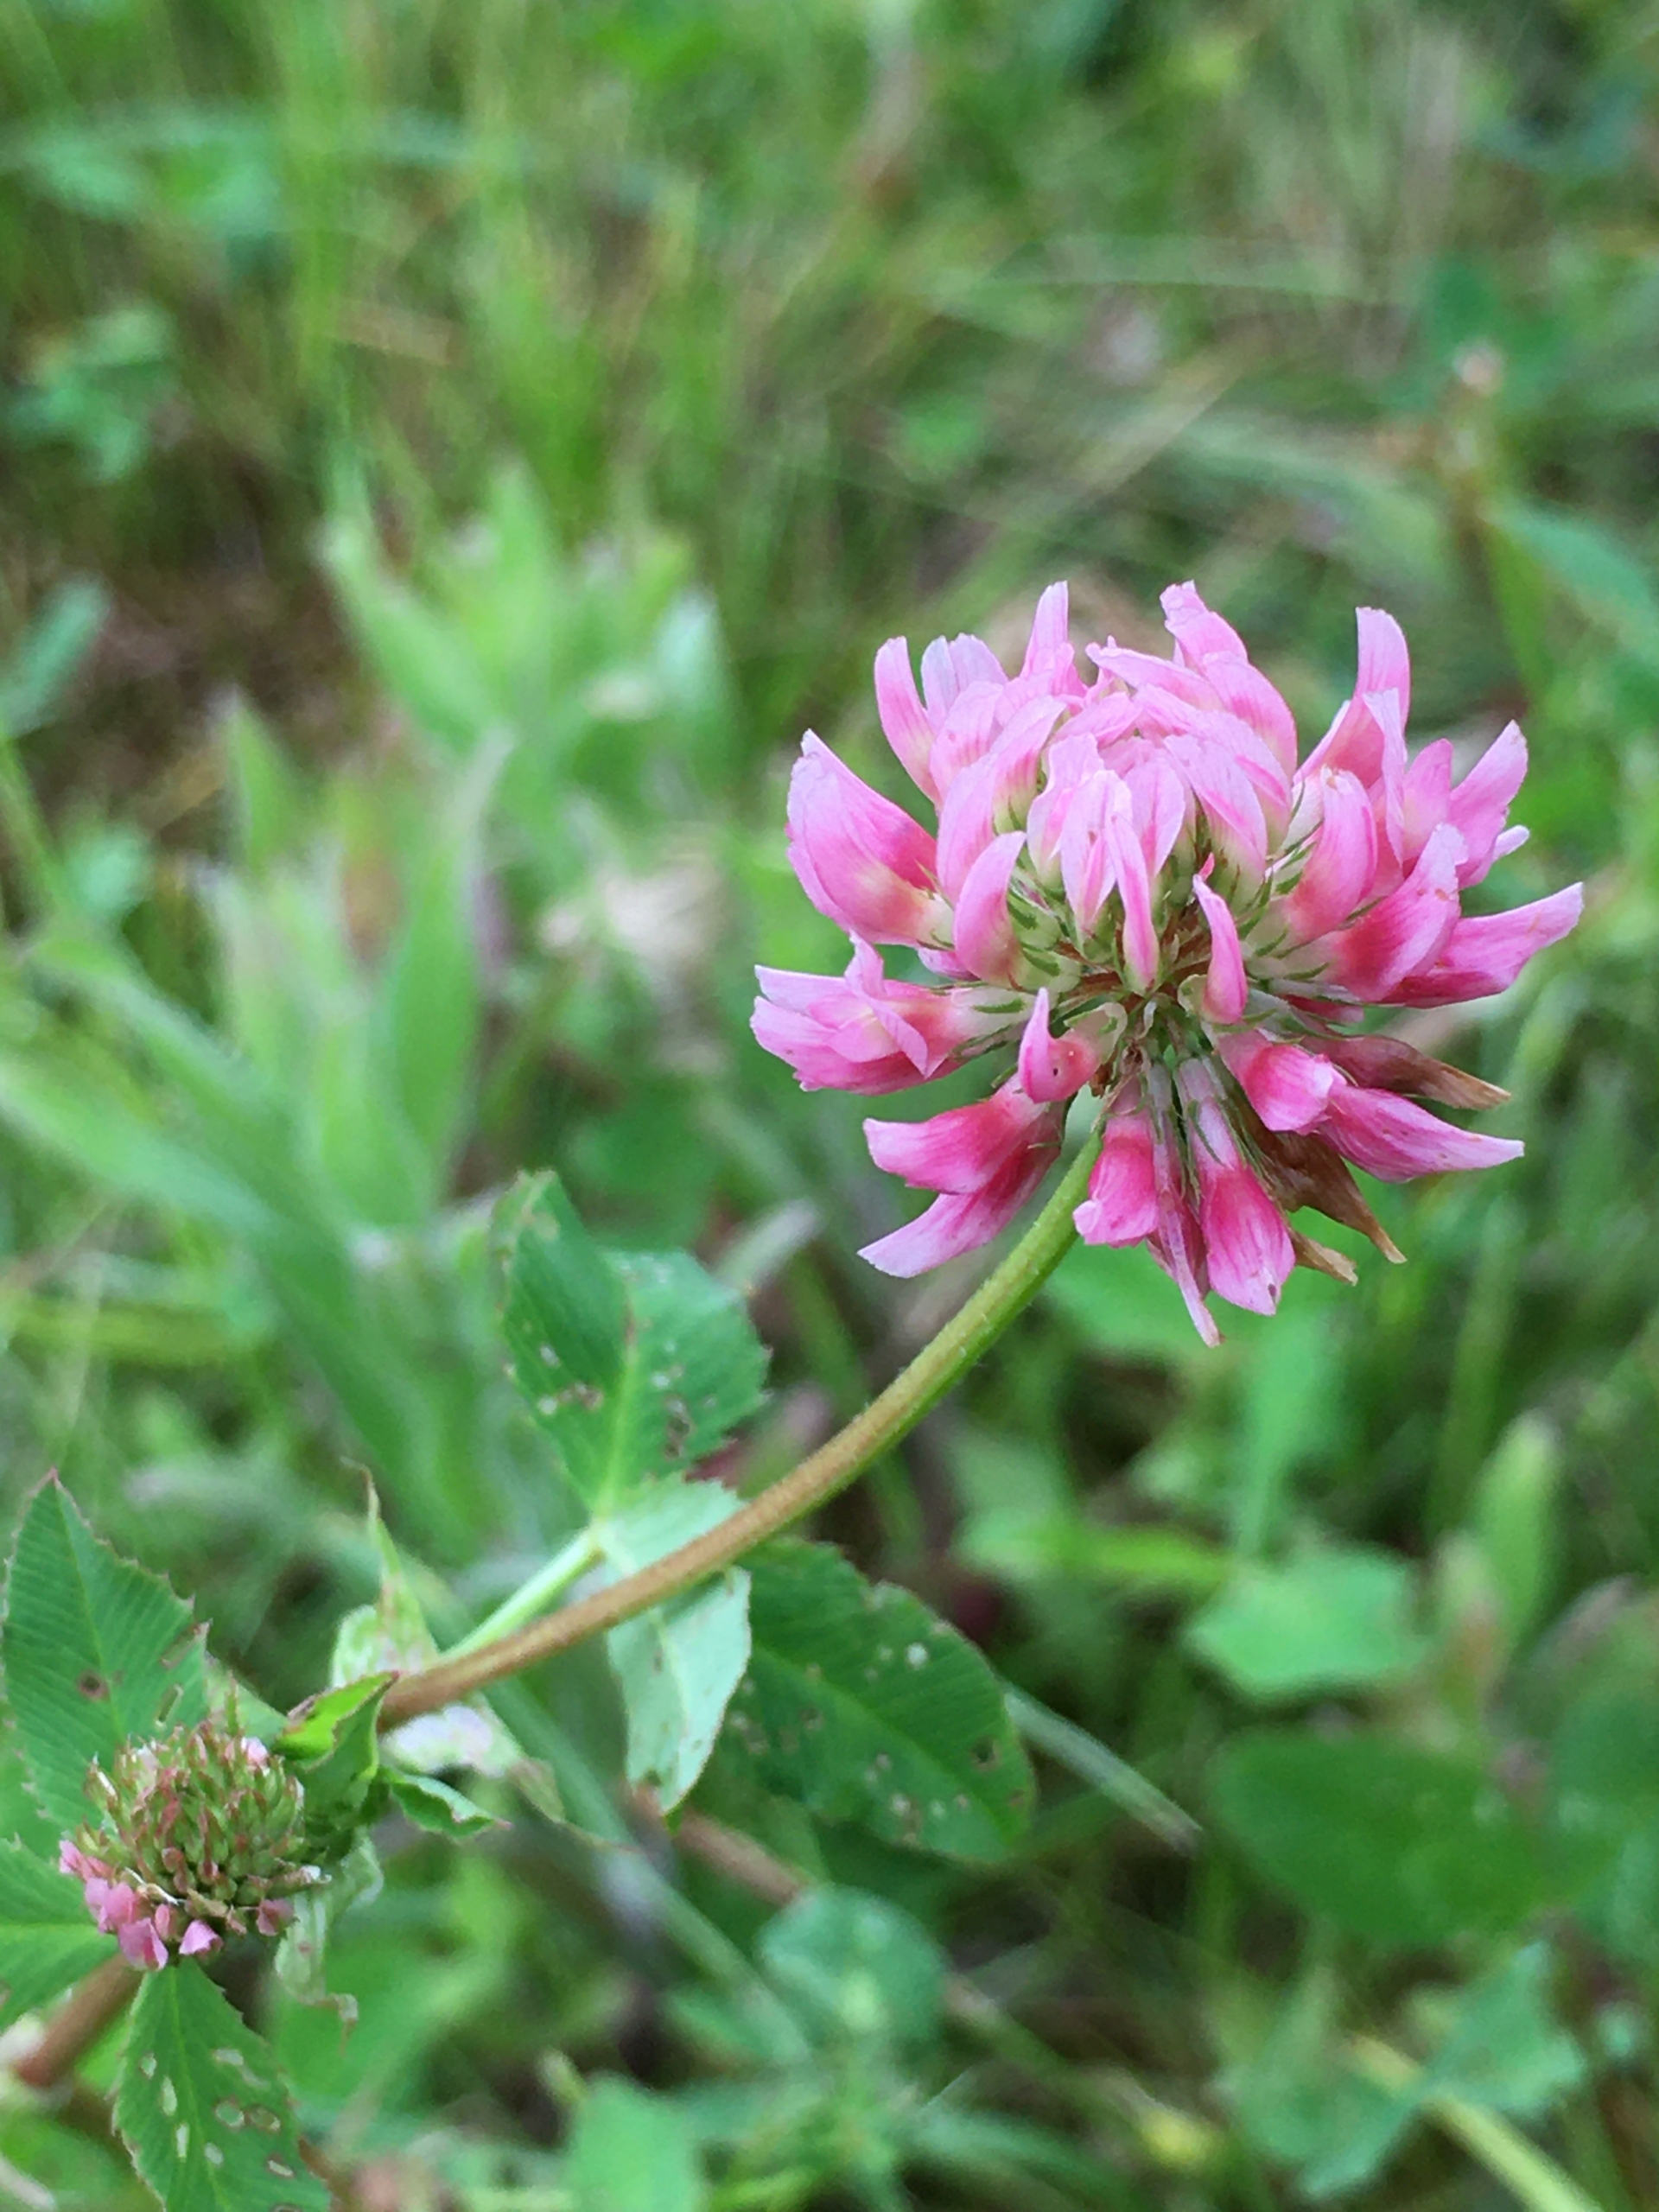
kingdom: Plantae
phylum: Tracheophyta
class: Magnoliopsida
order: Fabales
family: Fabaceae
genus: Trifolium
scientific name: Trifolium hybridum
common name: Alsike-kløver
